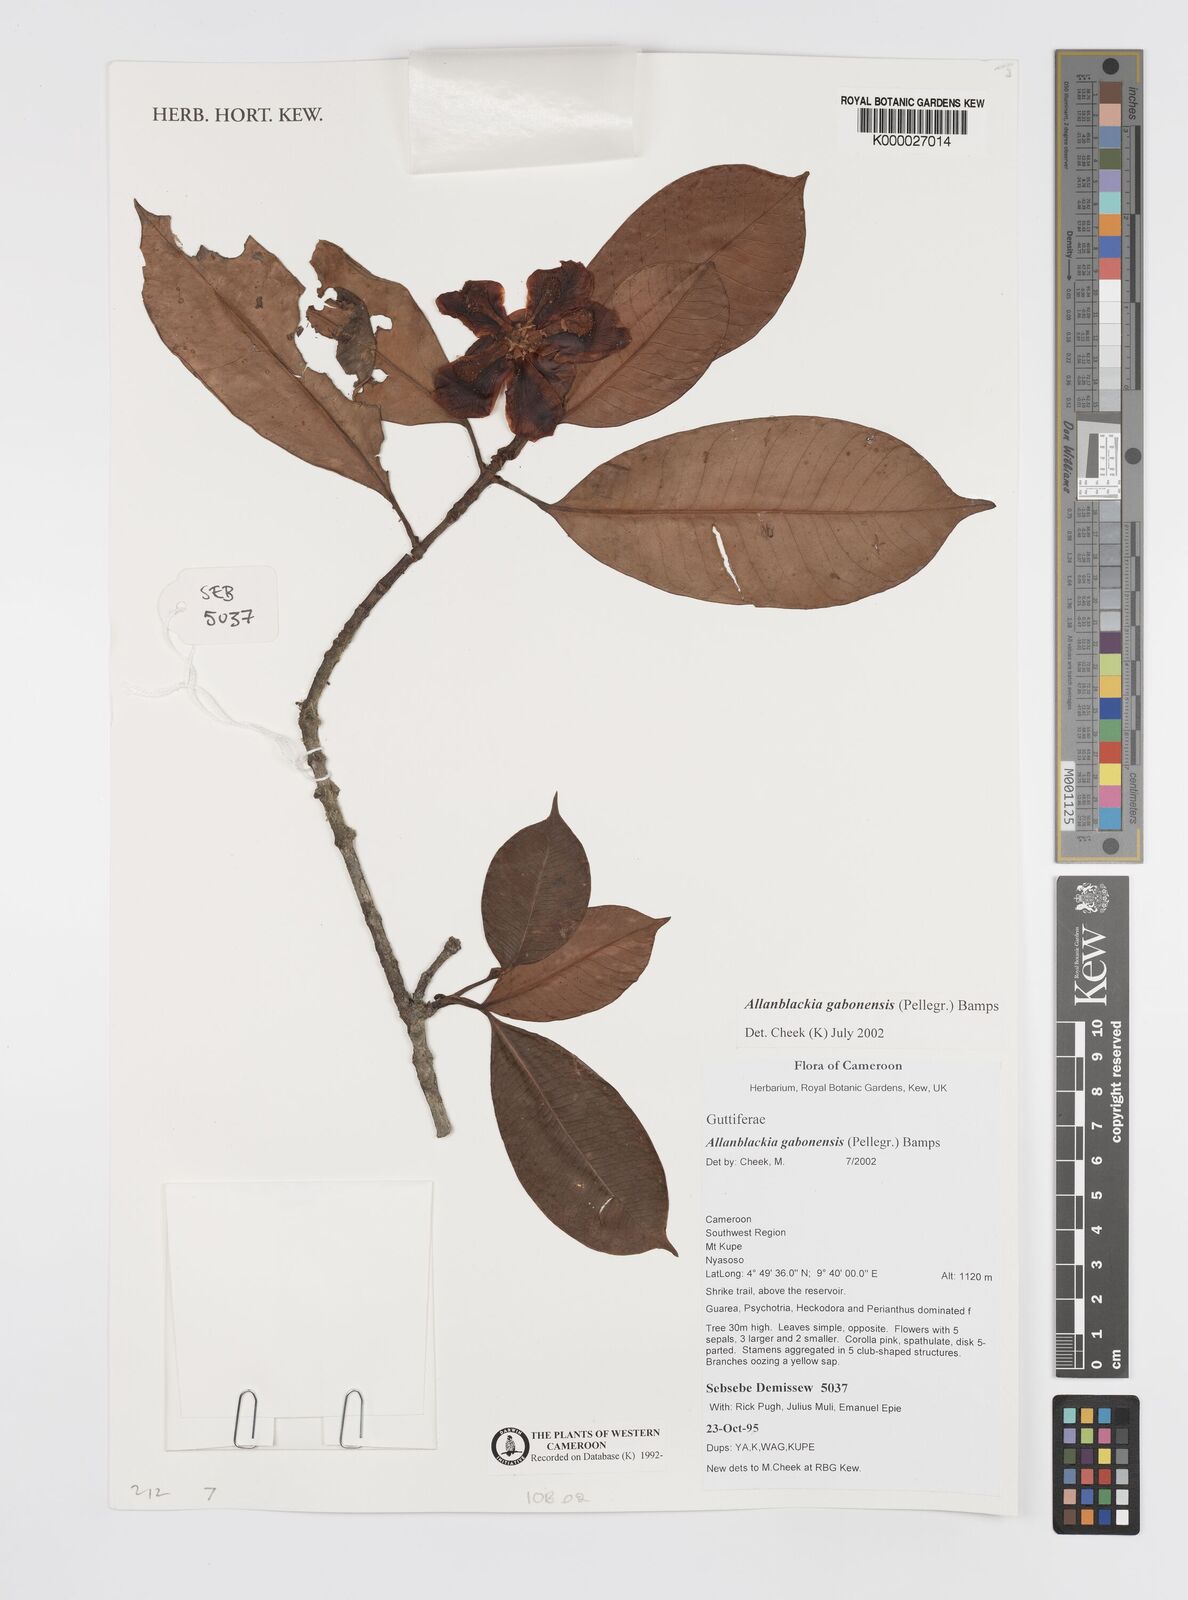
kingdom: Plantae
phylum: Tracheophyta
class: Magnoliopsida
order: Malpighiales
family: Clusiaceae
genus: Allanblackia
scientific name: Allanblackia gabonensis
